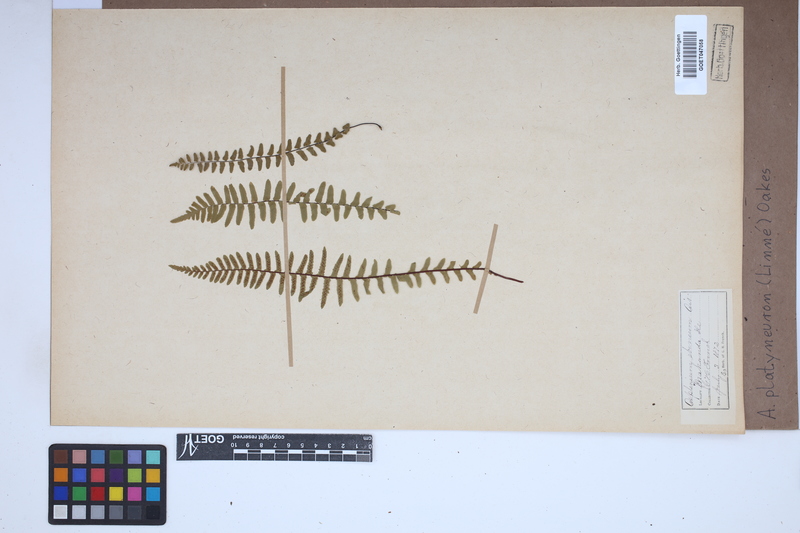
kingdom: Plantae
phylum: Tracheophyta
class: Polypodiopsida
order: Polypodiales
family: Aspleniaceae
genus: Asplenium
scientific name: Asplenium platyneuron
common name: Ebony spleenwort
